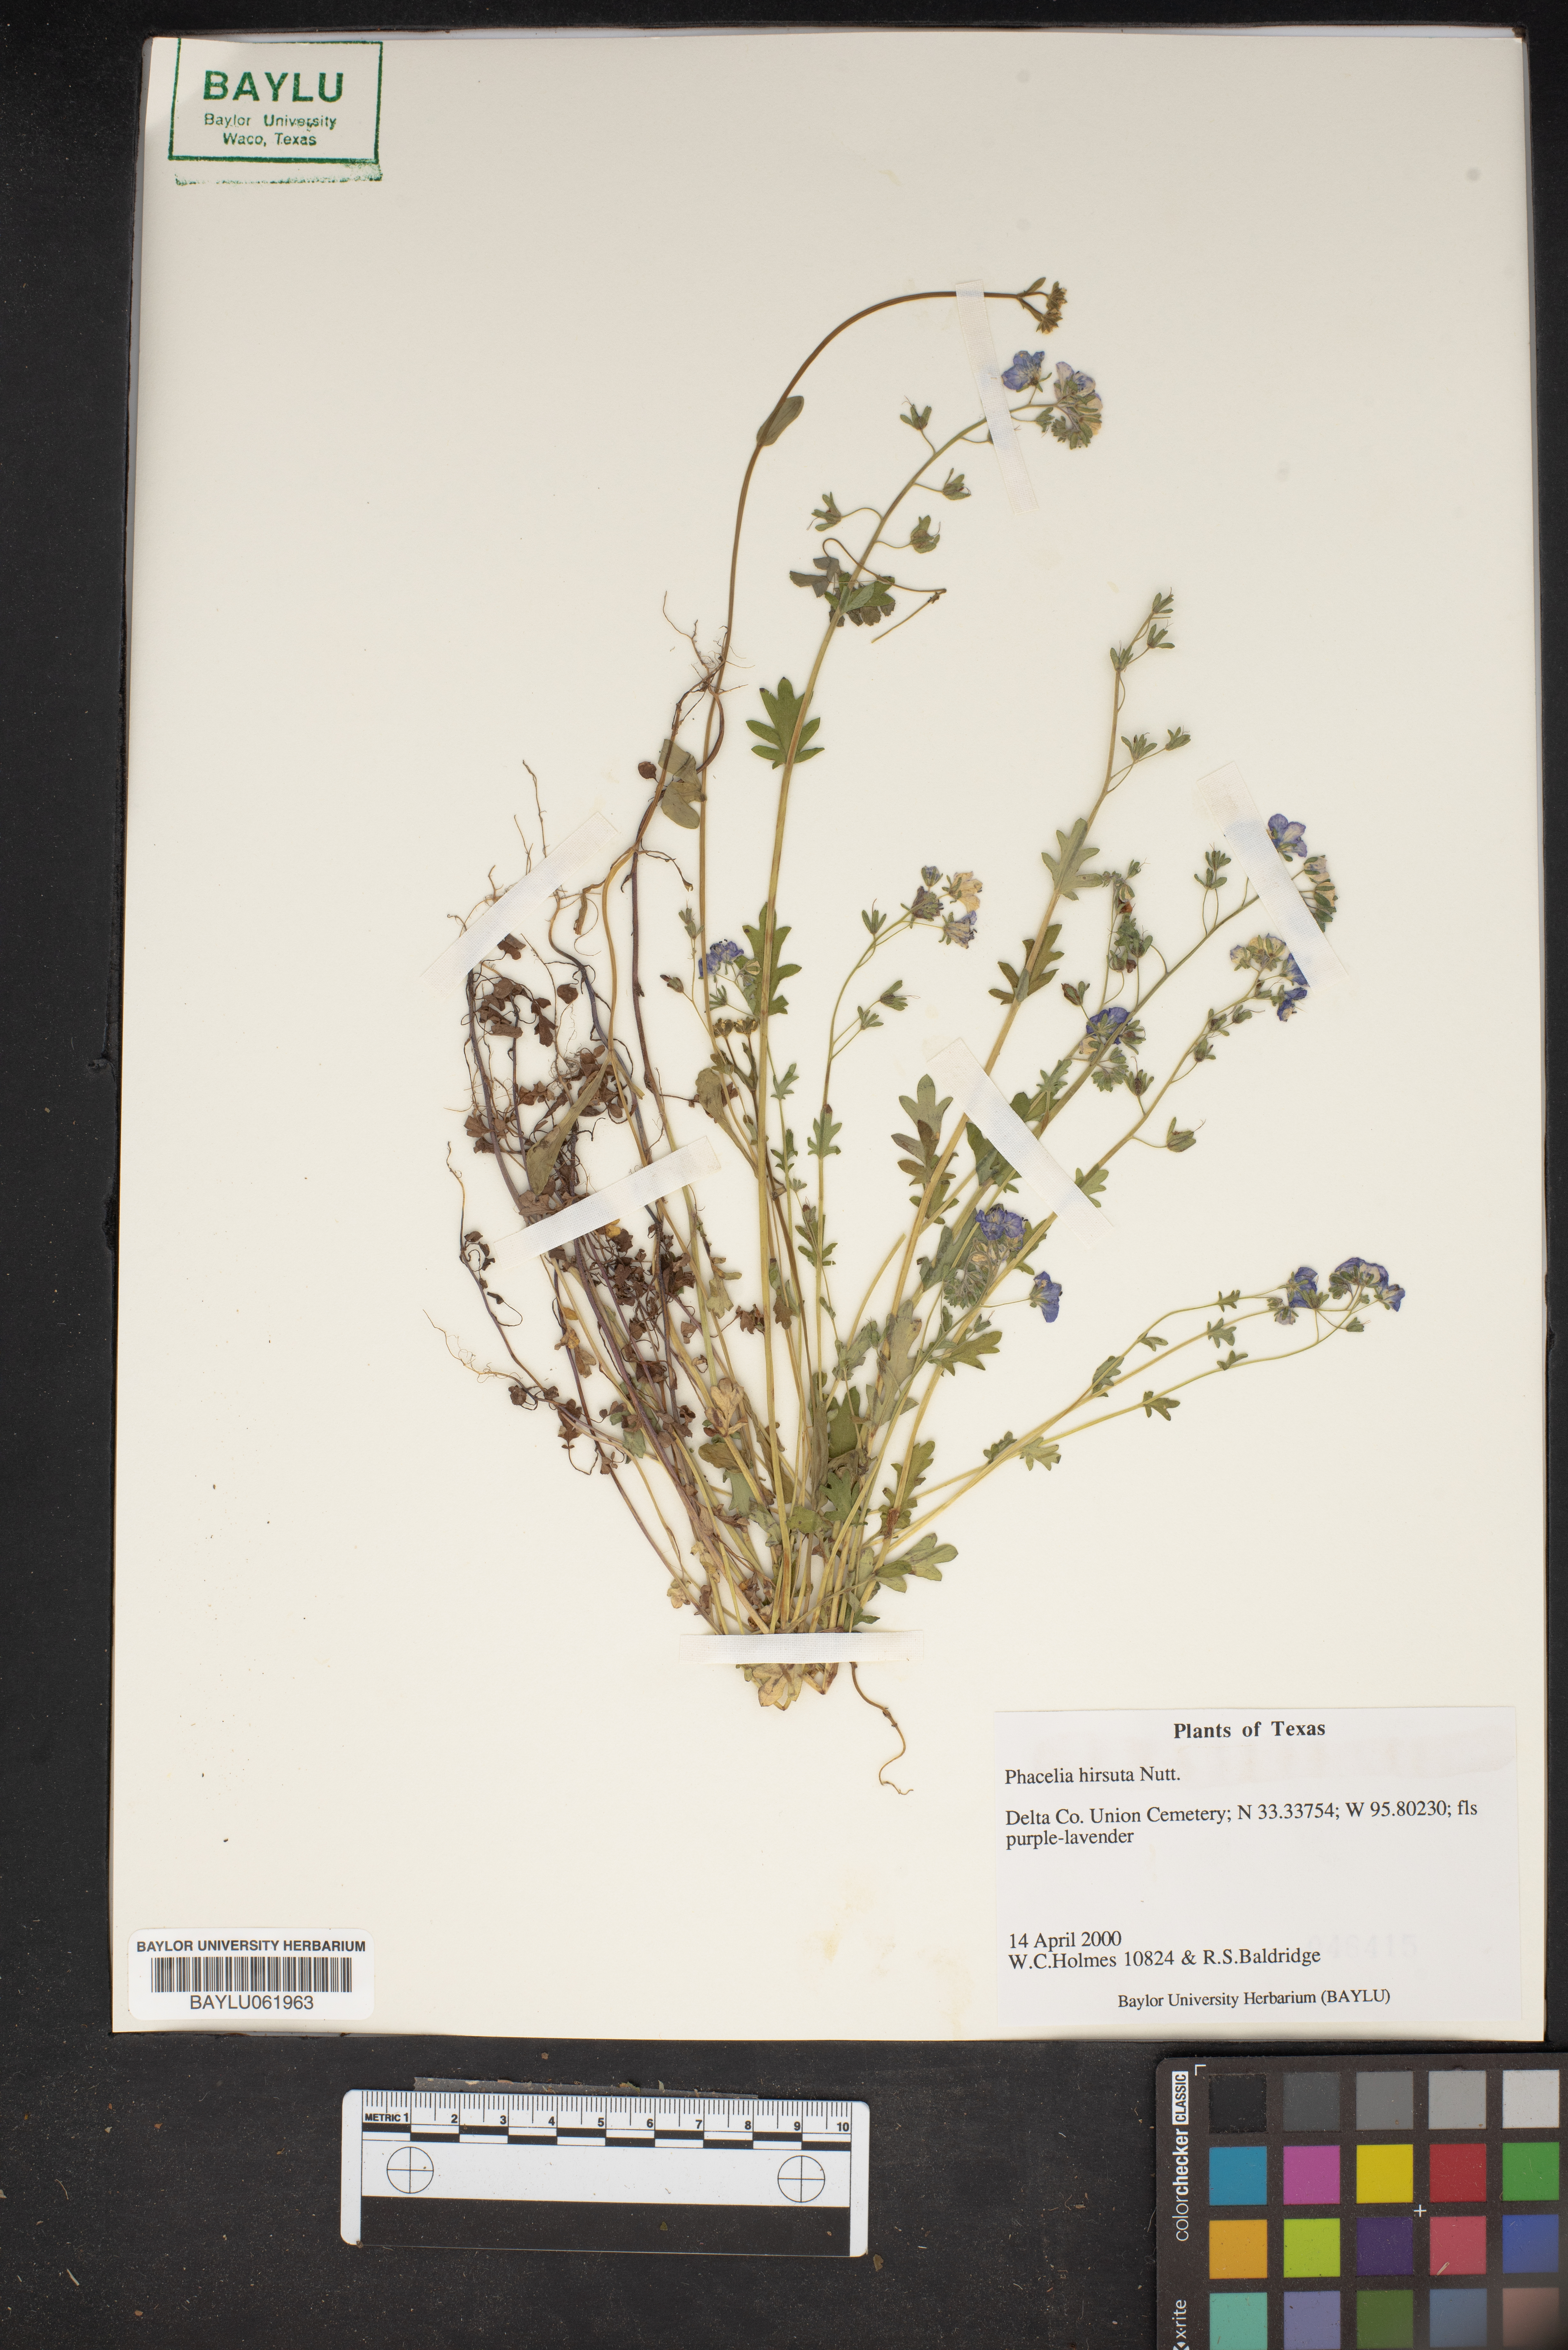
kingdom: Plantae
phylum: Tracheophyta
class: Magnoliopsida
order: Boraginales
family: Hydrophyllaceae
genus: Phacelia
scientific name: Phacelia hirsuta
